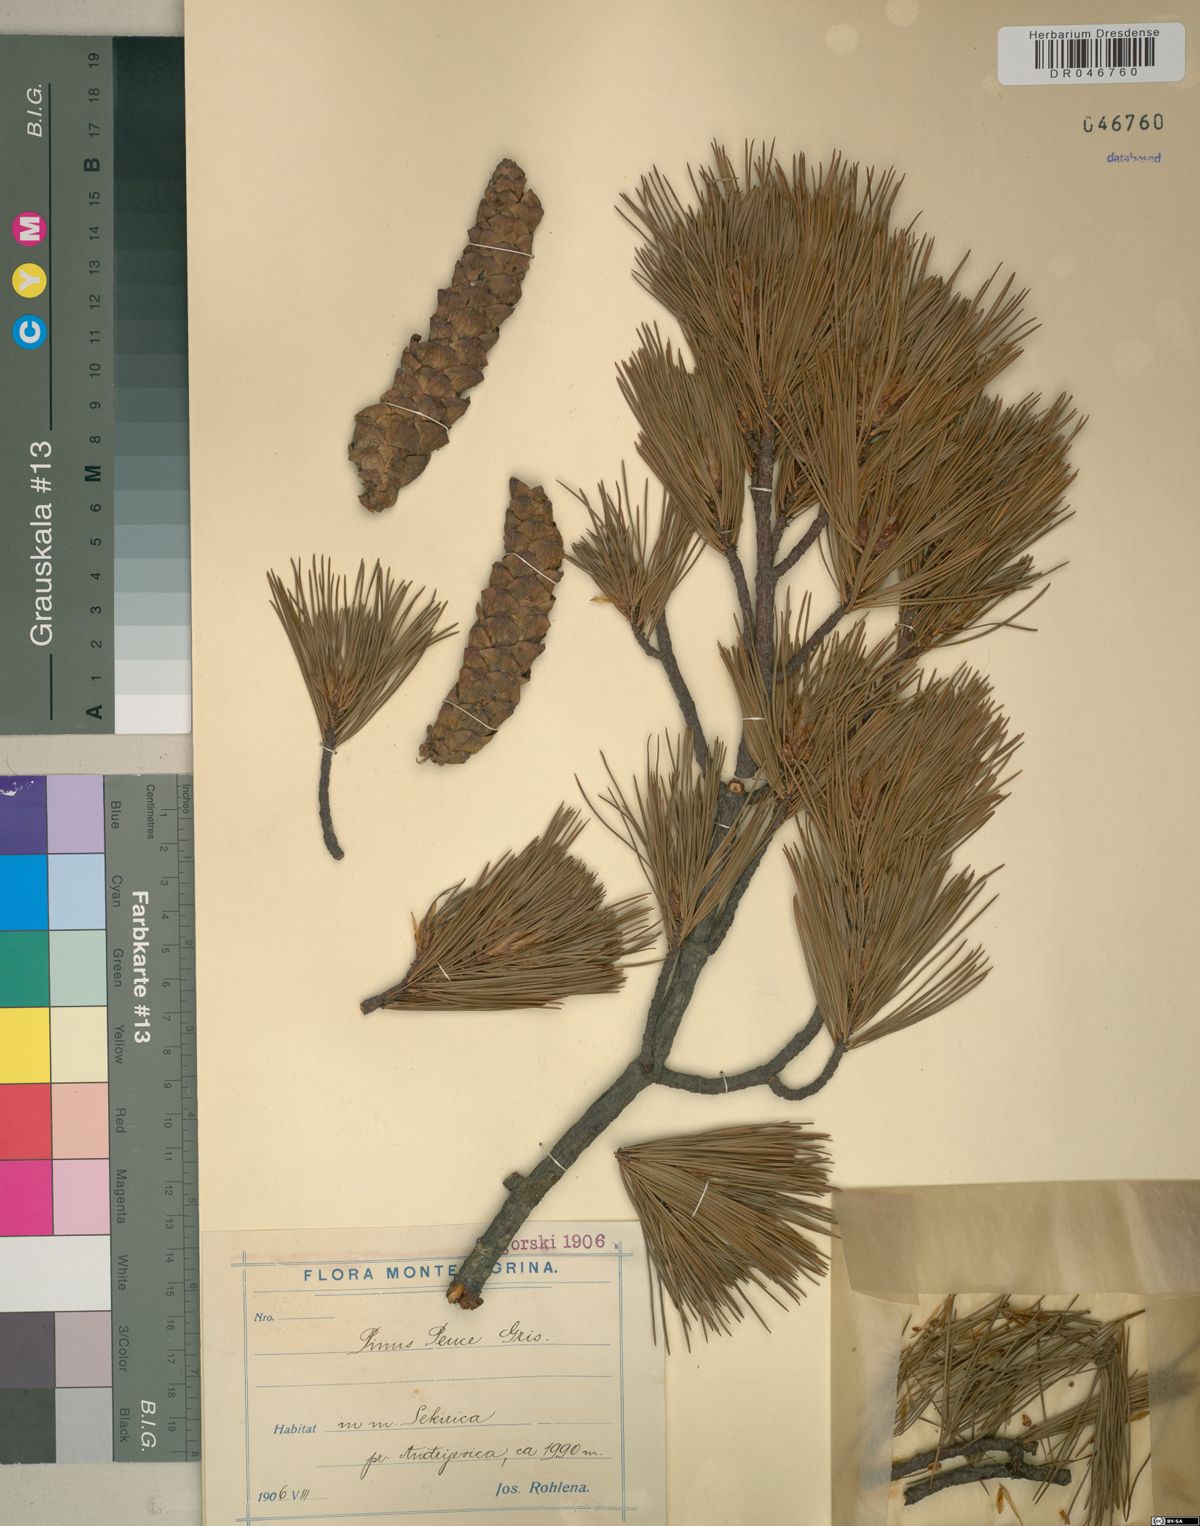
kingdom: Plantae
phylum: Tracheophyta
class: Pinopsida
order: Pinales
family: Pinaceae
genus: Pinus
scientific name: Pinus peuce
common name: Macedonian pine
